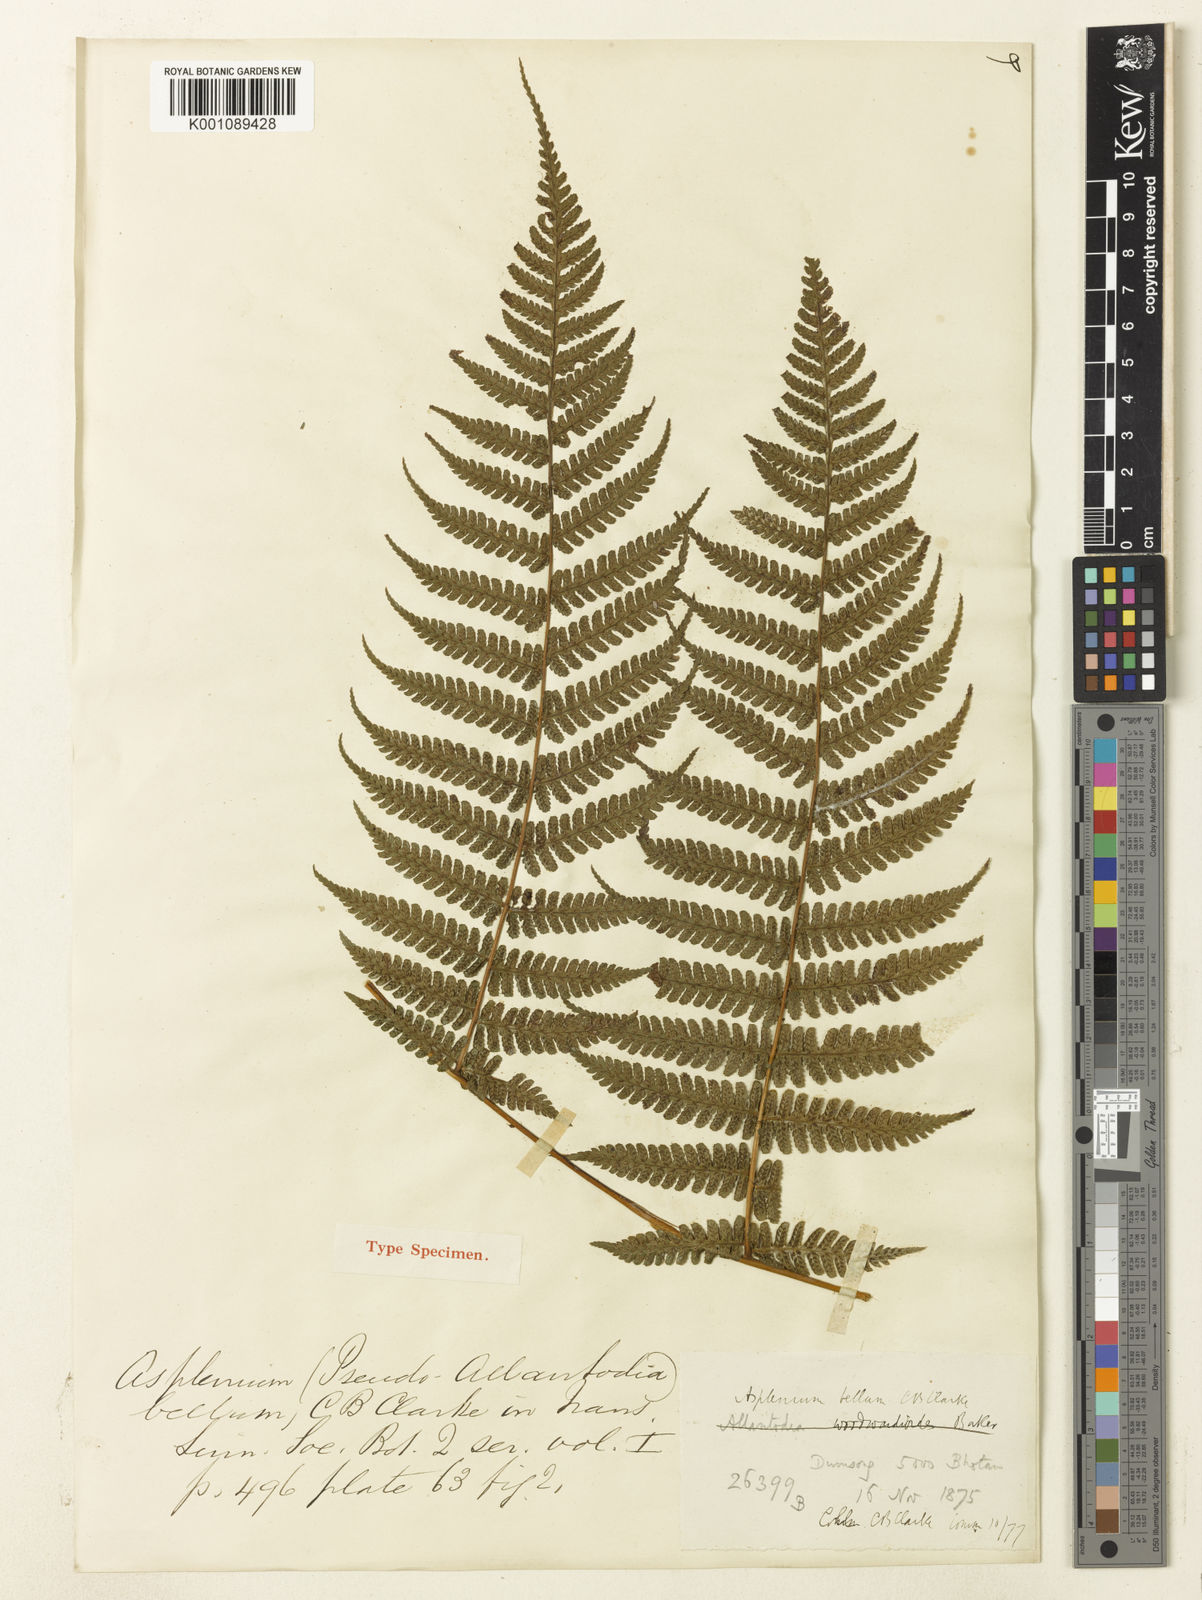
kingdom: Plantae
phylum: Tracheophyta
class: Polypodiopsida
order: Polypodiales
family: Athyriaceae
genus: Diplazium
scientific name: Diplazium bellum
